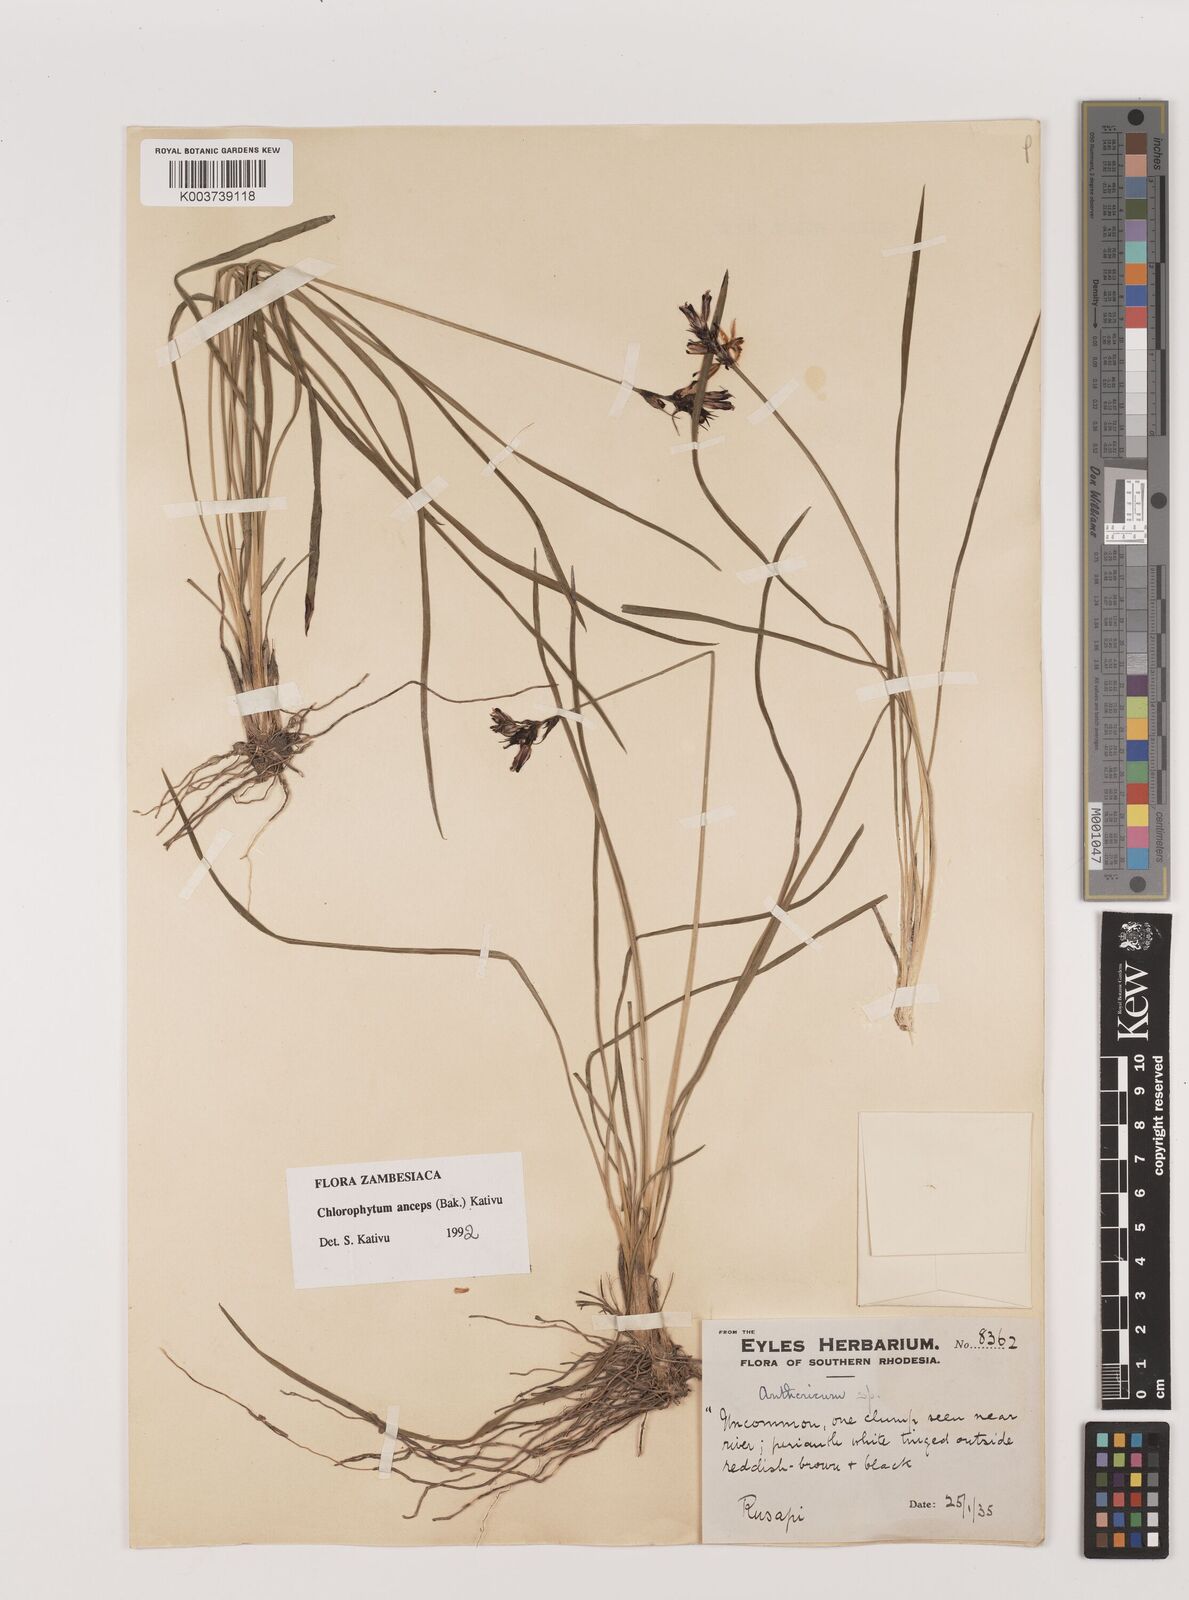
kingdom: Plantae
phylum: Tracheophyta
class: Liliopsida
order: Asparagales
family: Asparagaceae
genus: Chlorophytum
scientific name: Chlorophytum anceps
